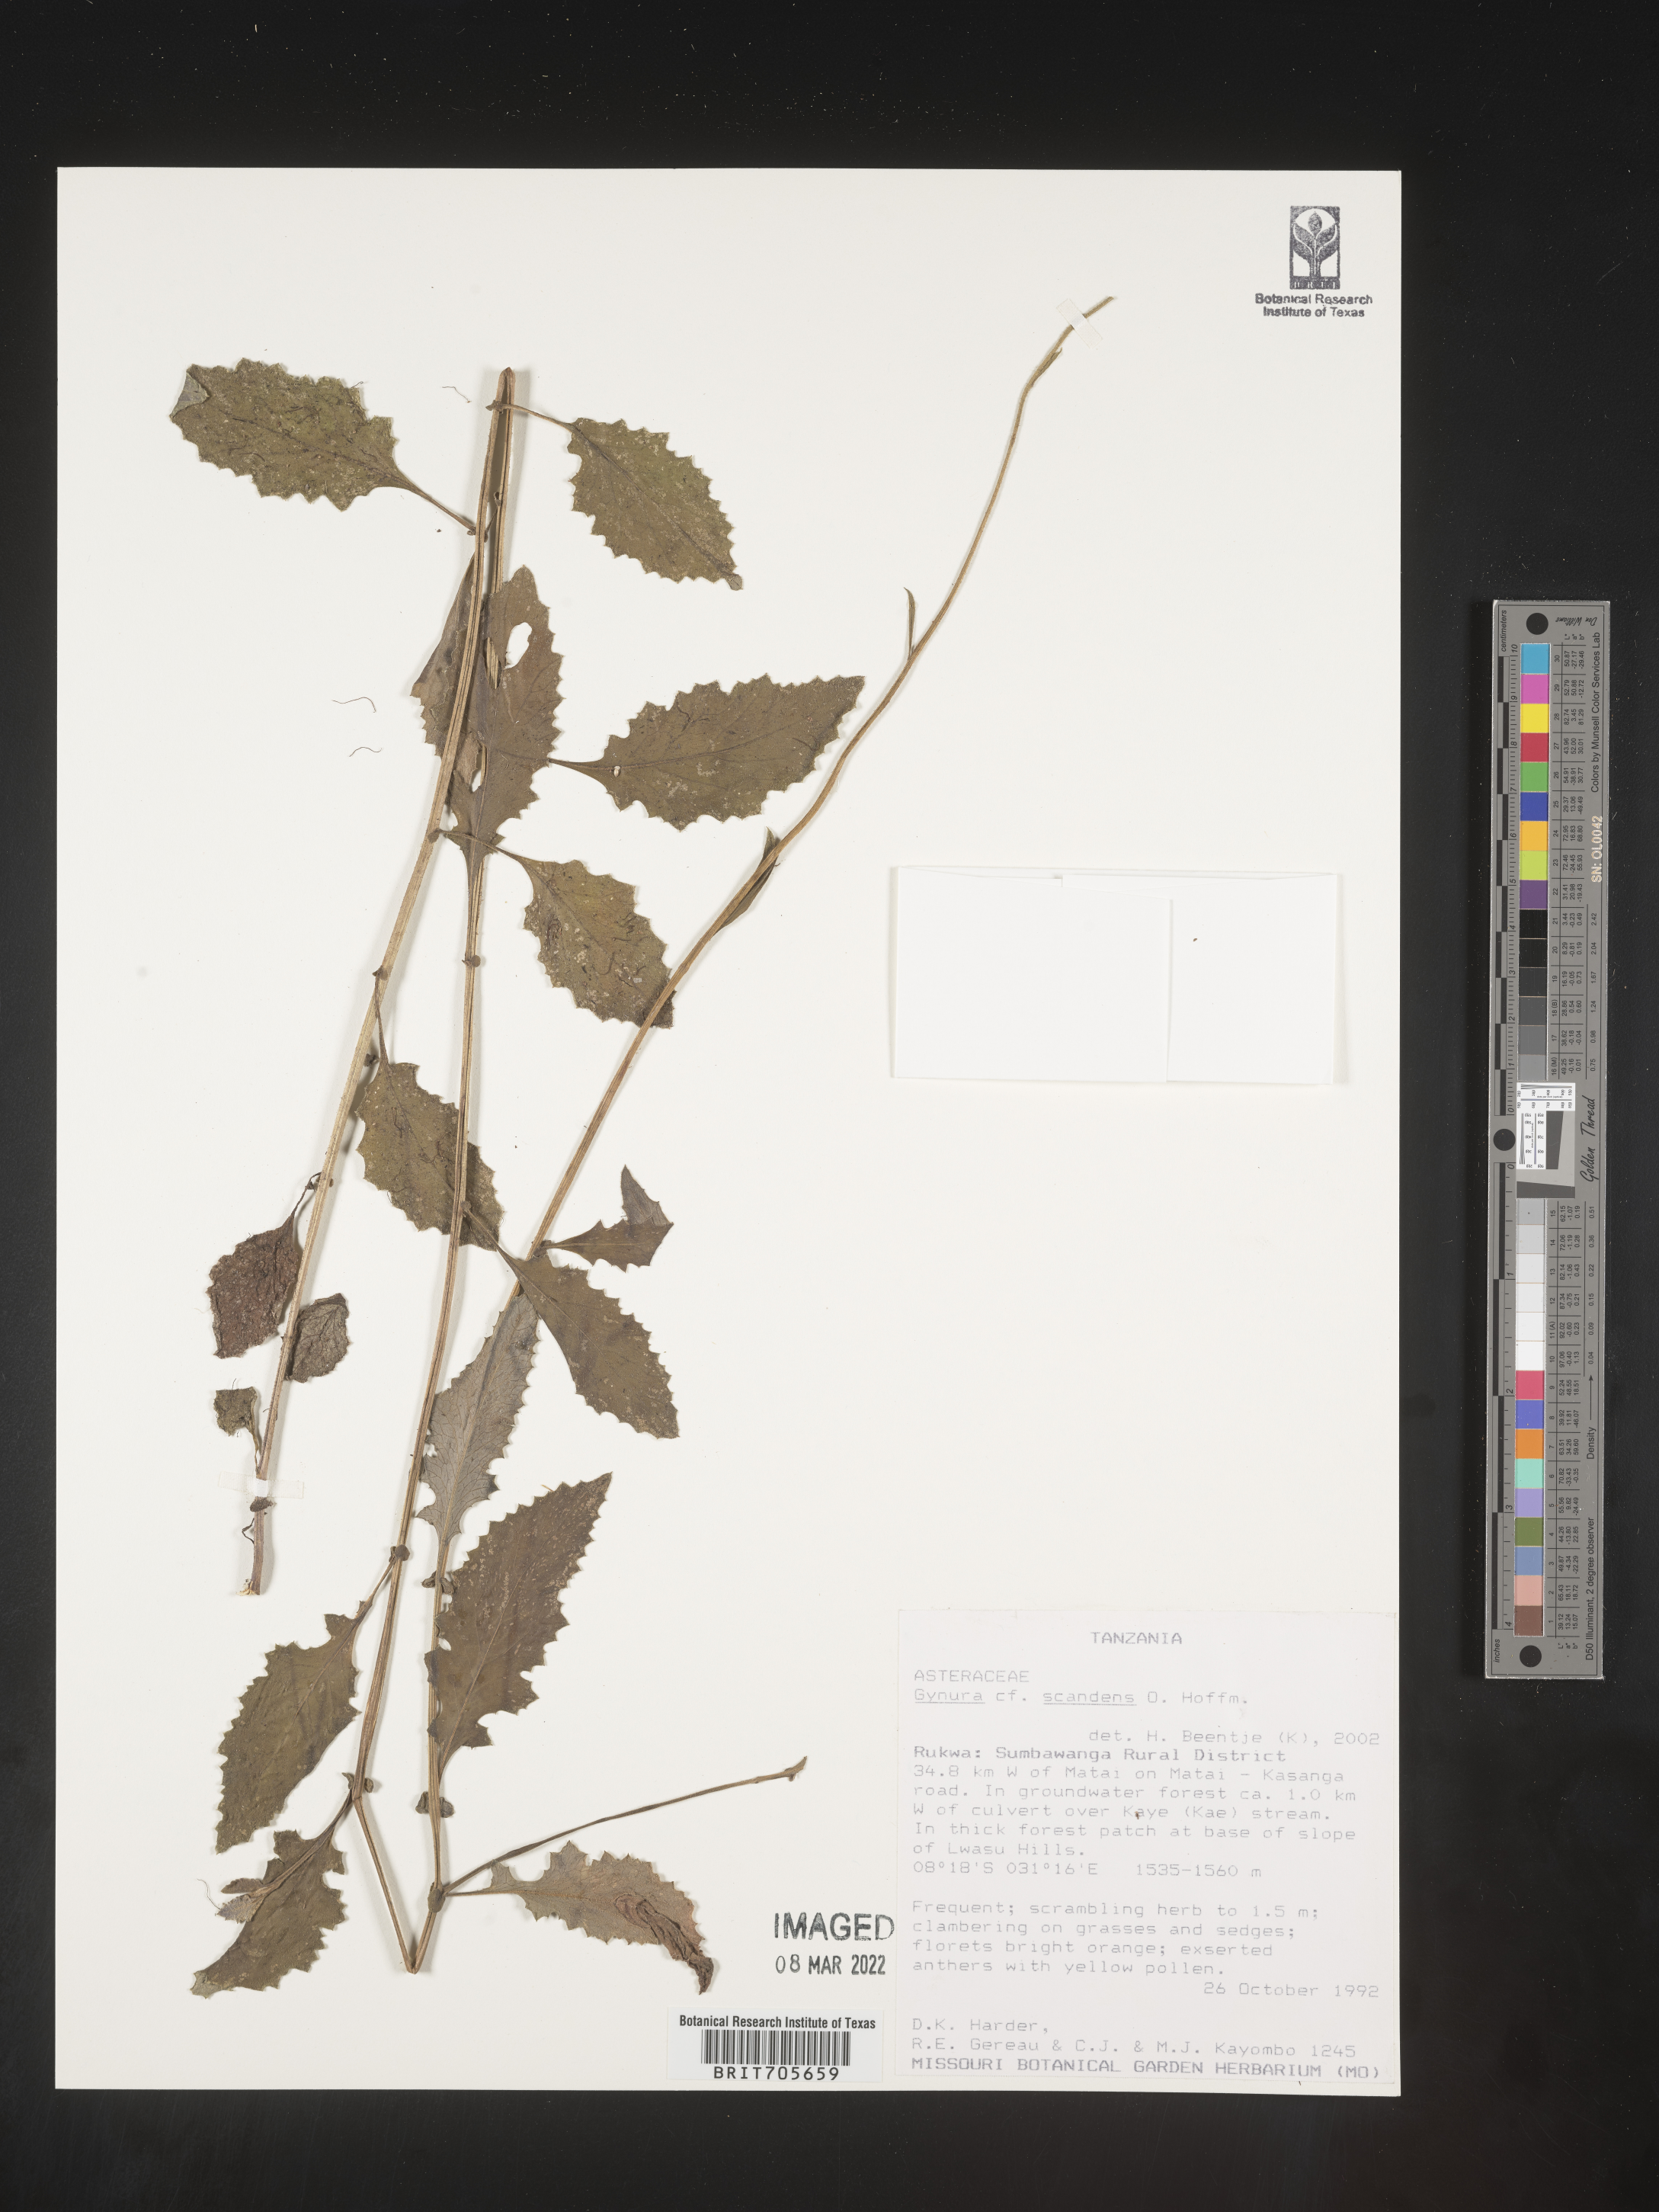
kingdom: Plantae
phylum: Tracheophyta
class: Magnoliopsida
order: Asterales
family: Asteraceae
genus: Gynura
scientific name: Gynura
